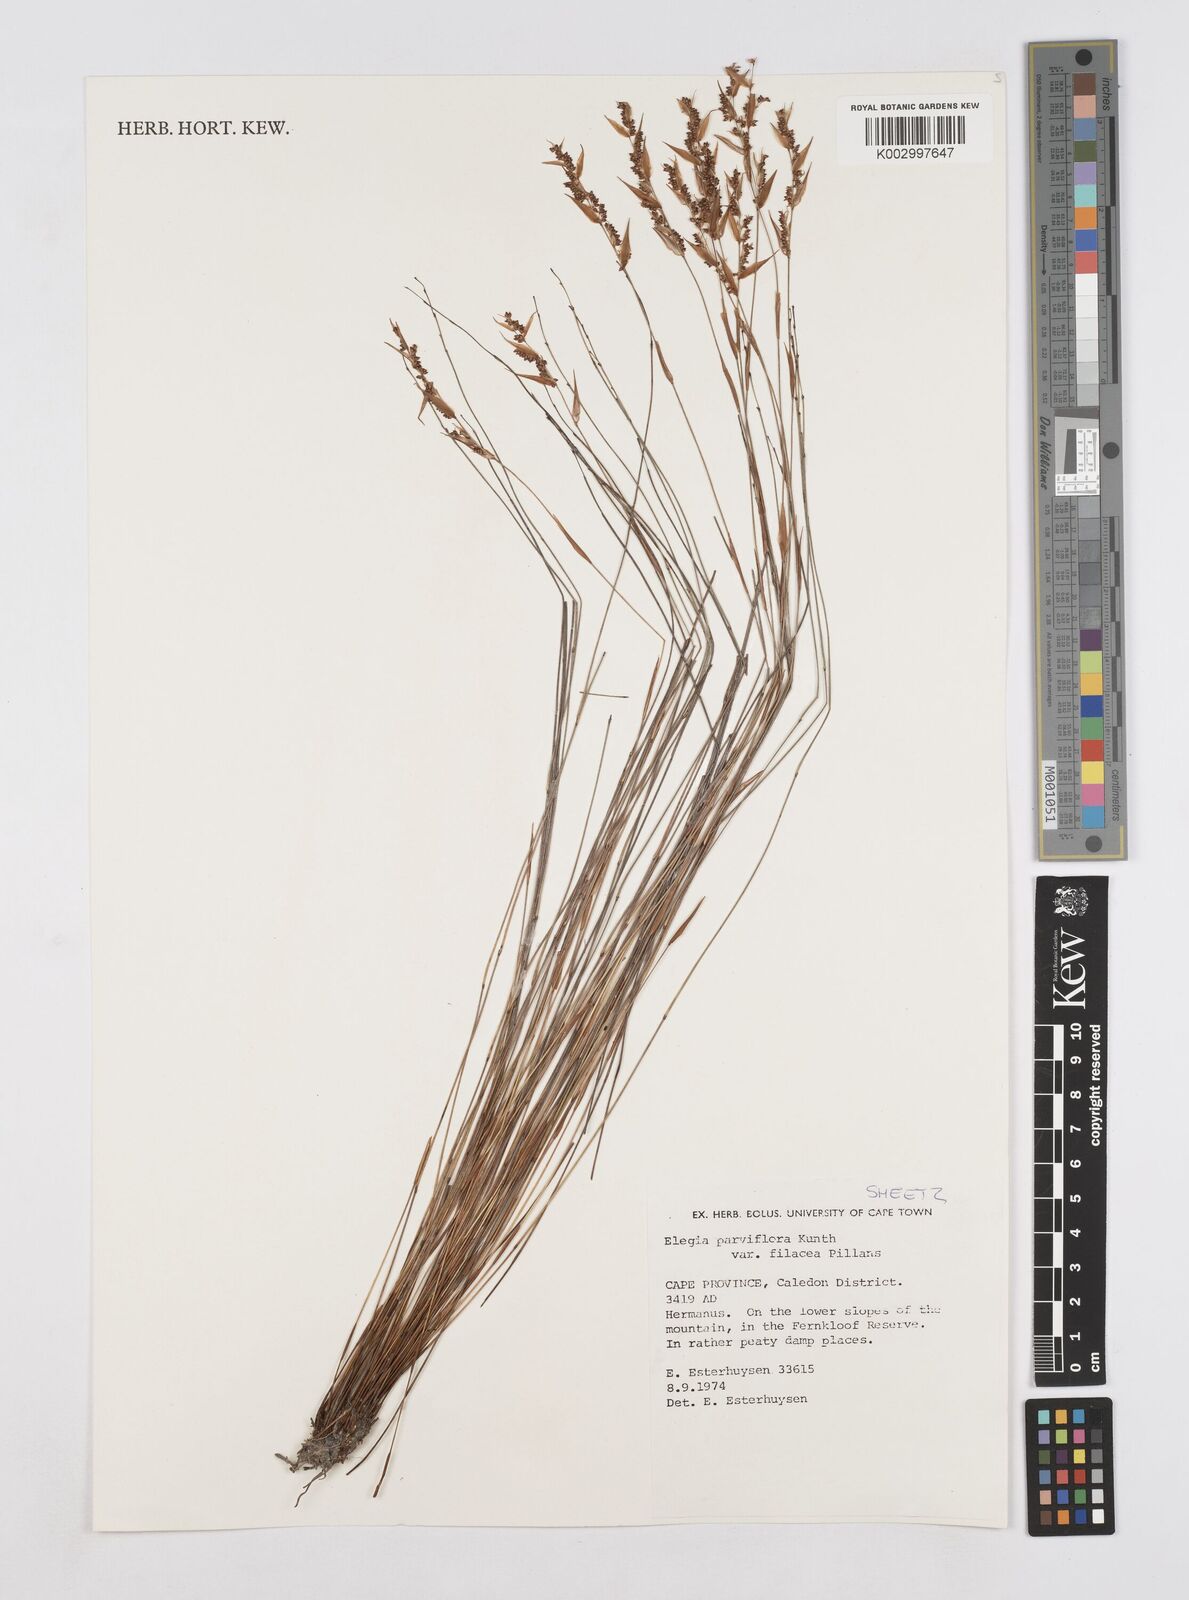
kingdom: Plantae
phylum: Tracheophyta
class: Liliopsida
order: Poales
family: Restionaceae
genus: Cannomois
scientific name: Cannomois parviflora
